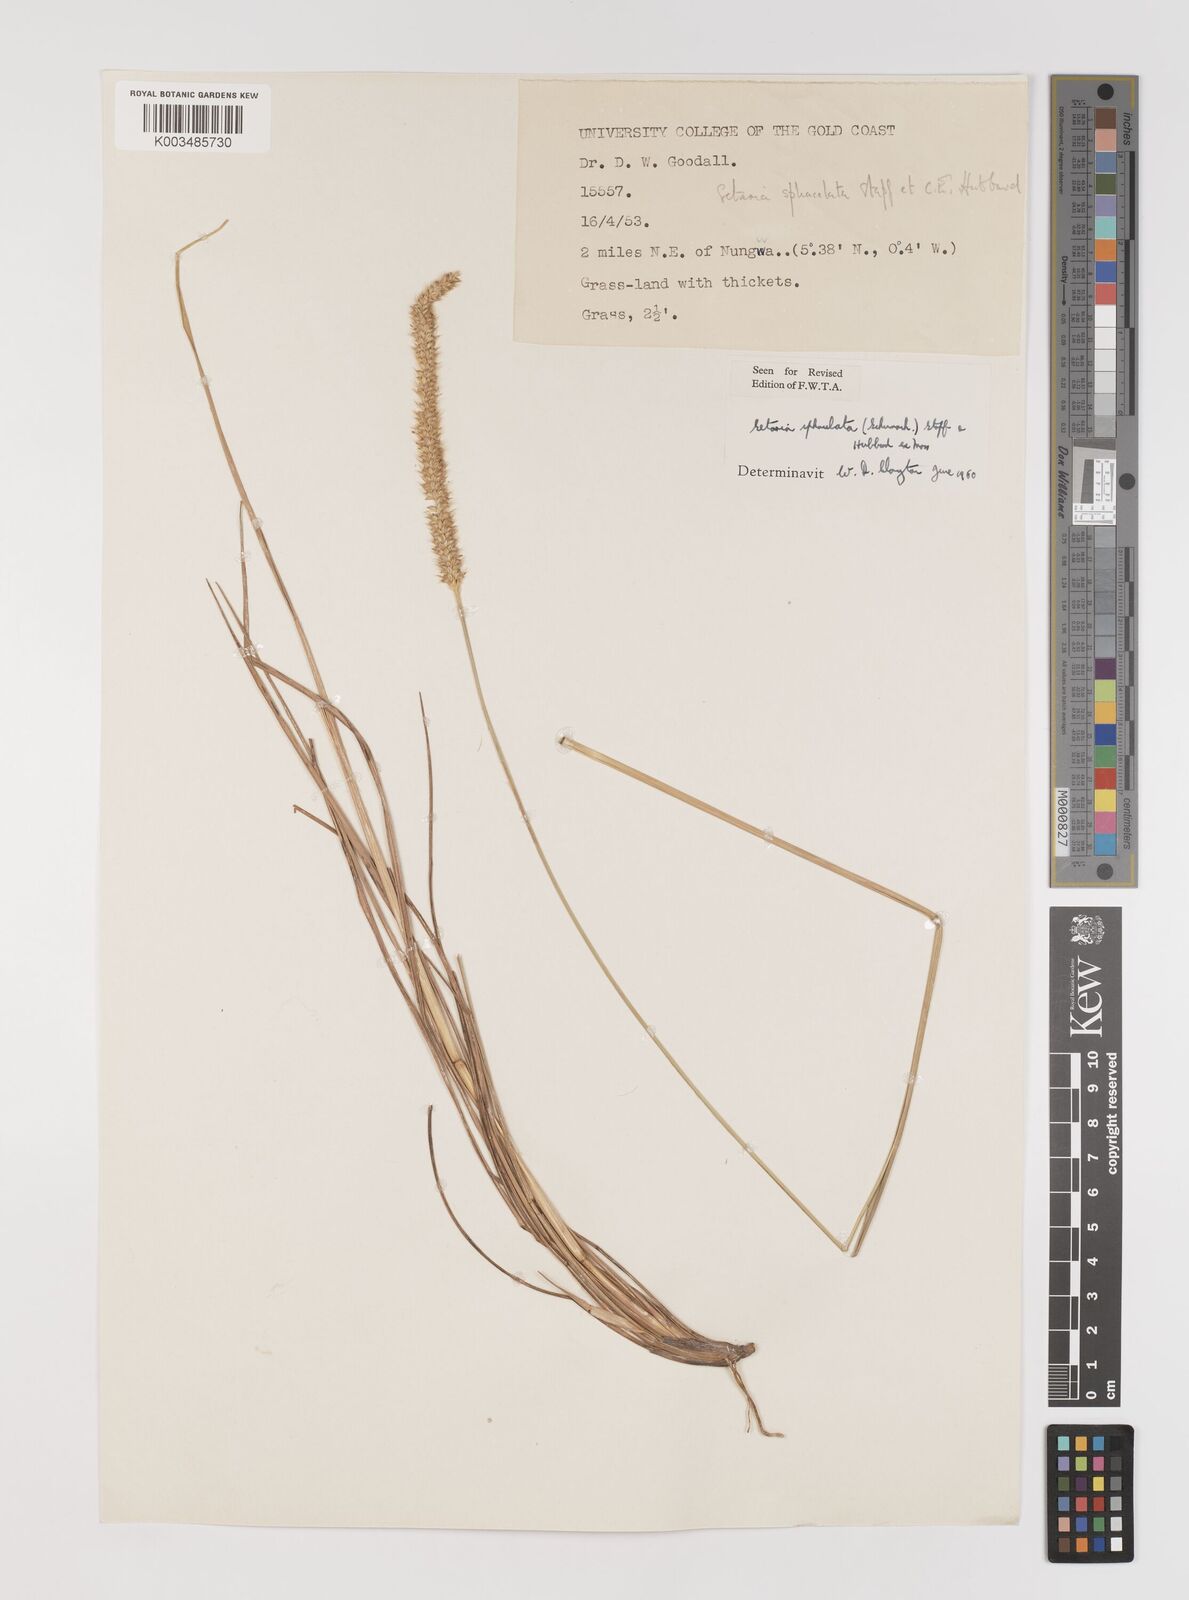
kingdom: Plantae
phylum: Tracheophyta
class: Liliopsida
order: Poales
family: Poaceae
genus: Setaria
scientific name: Setaria sphacelata
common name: African bristlegrass
